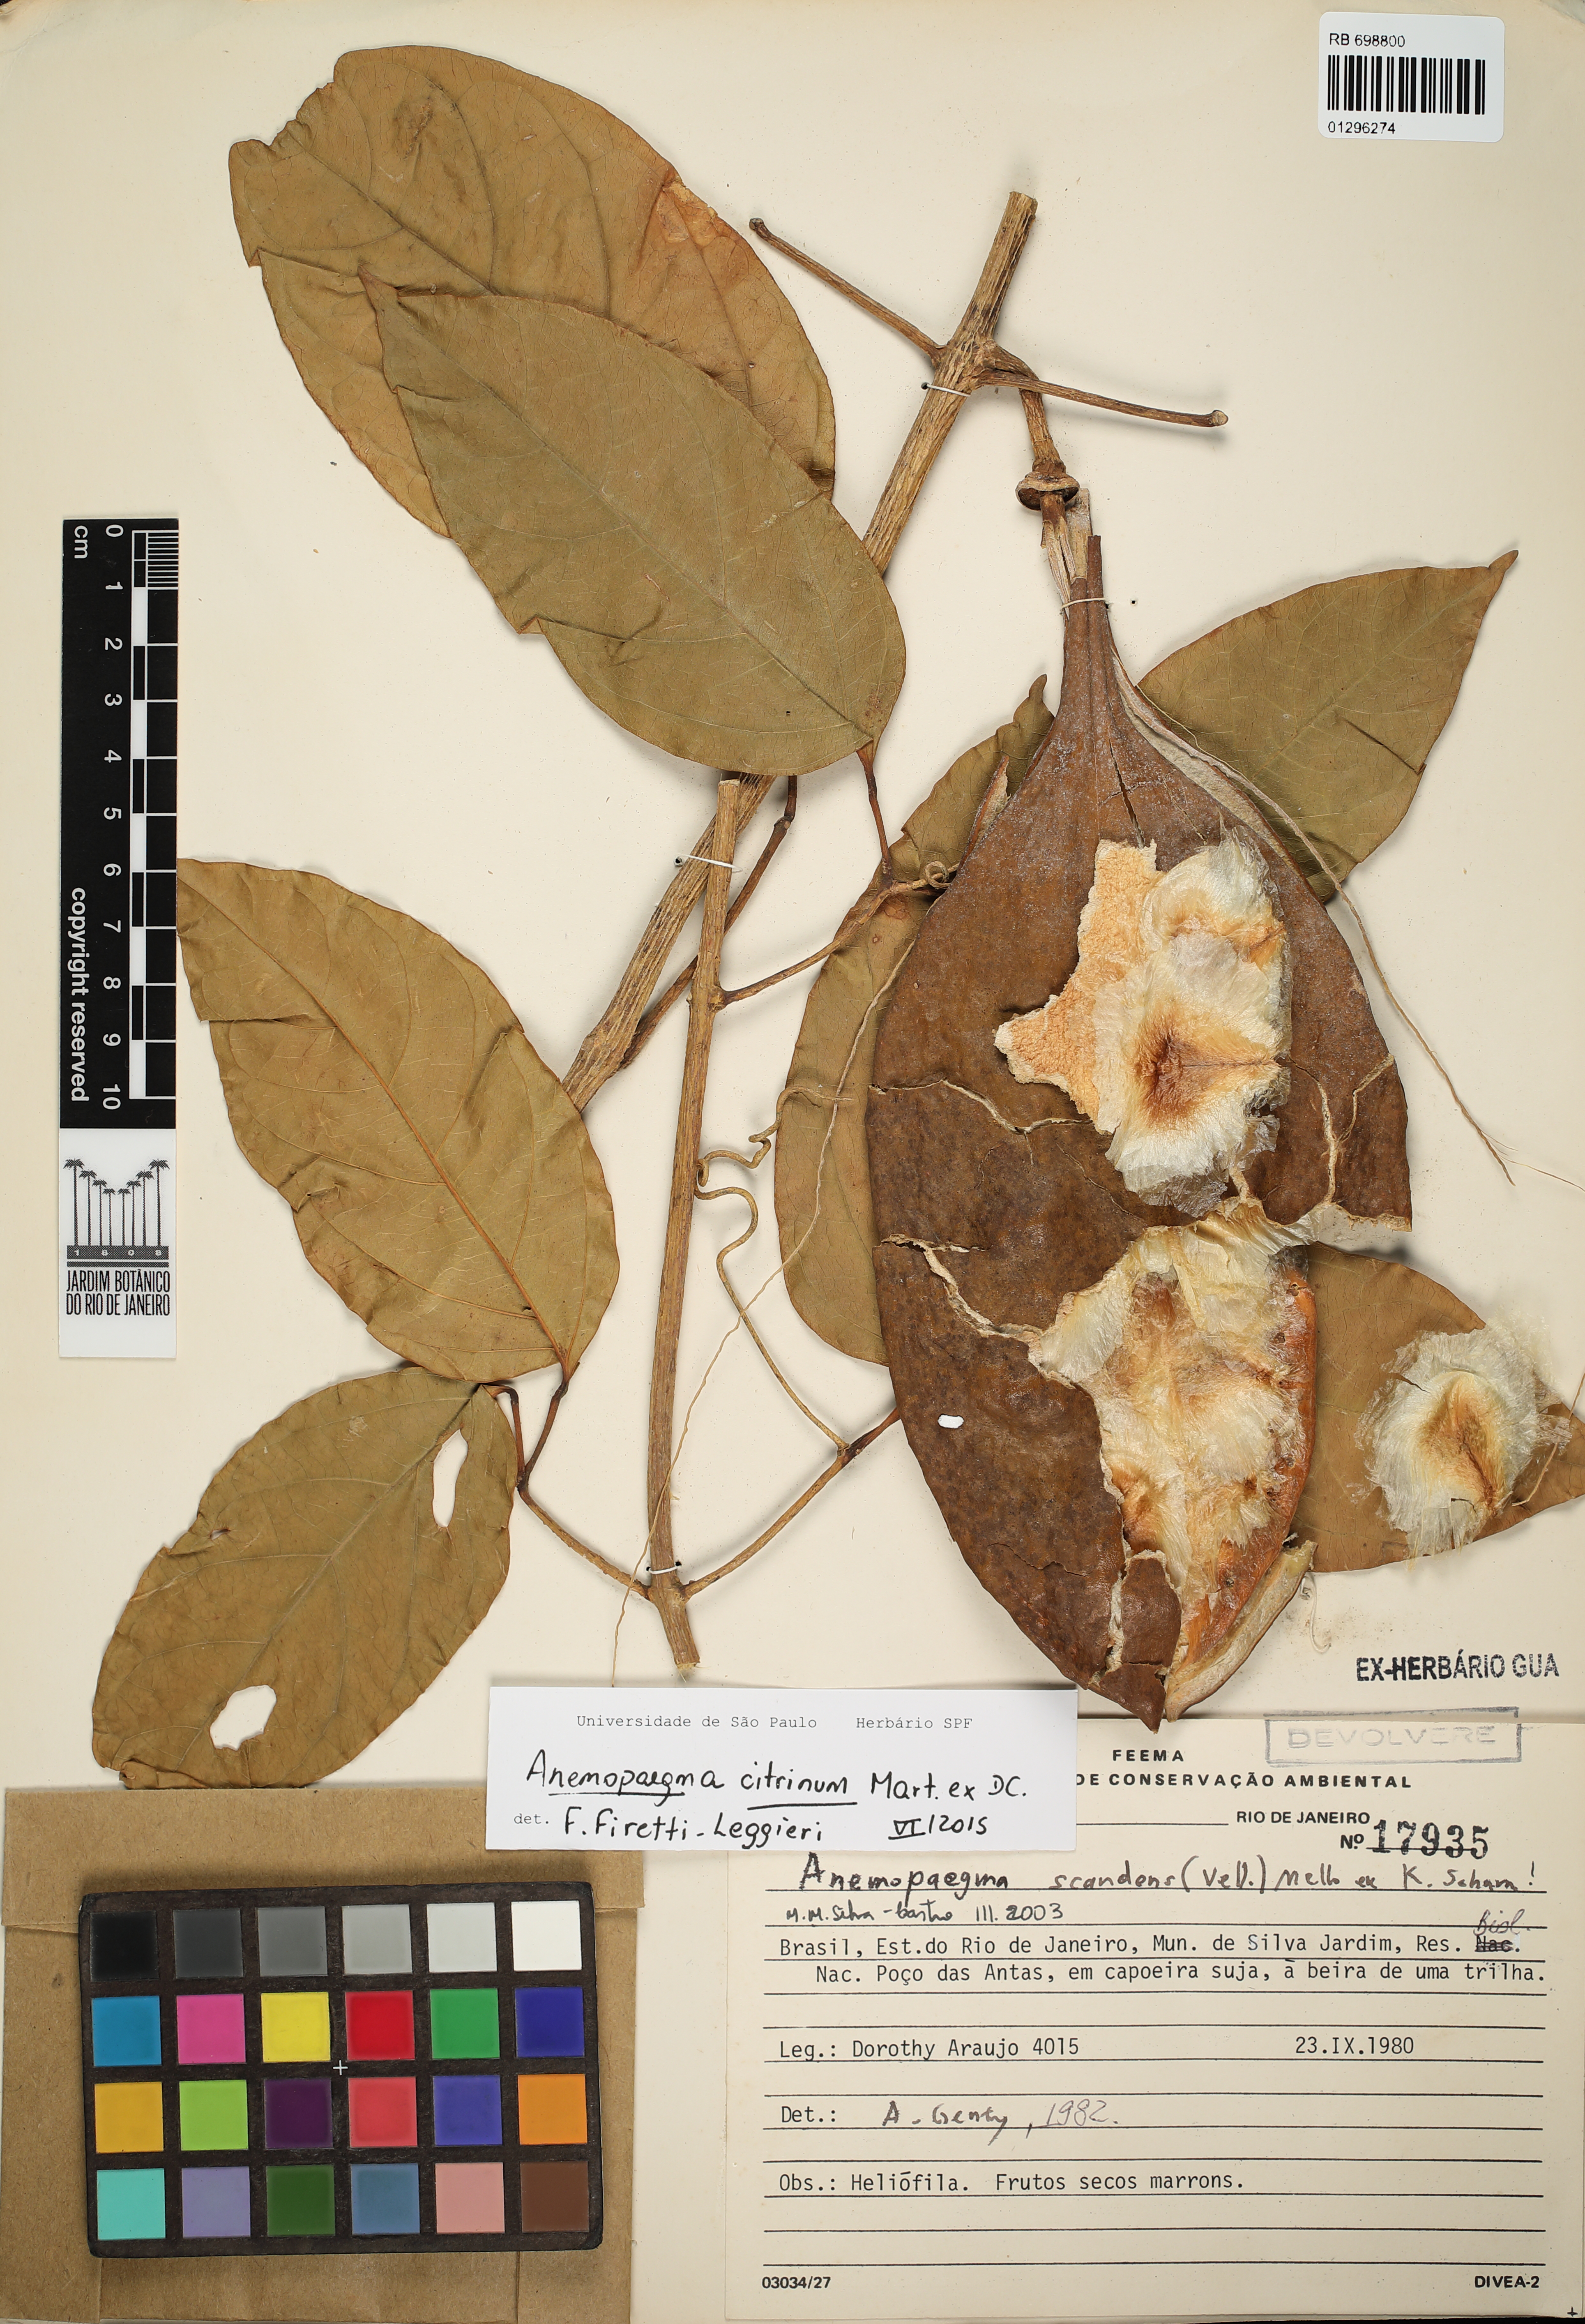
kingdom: Plantae
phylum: Tracheophyta
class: Magnoliopsida
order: Lamiales
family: Bignoniaceae
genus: Anemopaegma
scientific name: Anemopaegma citrinum
